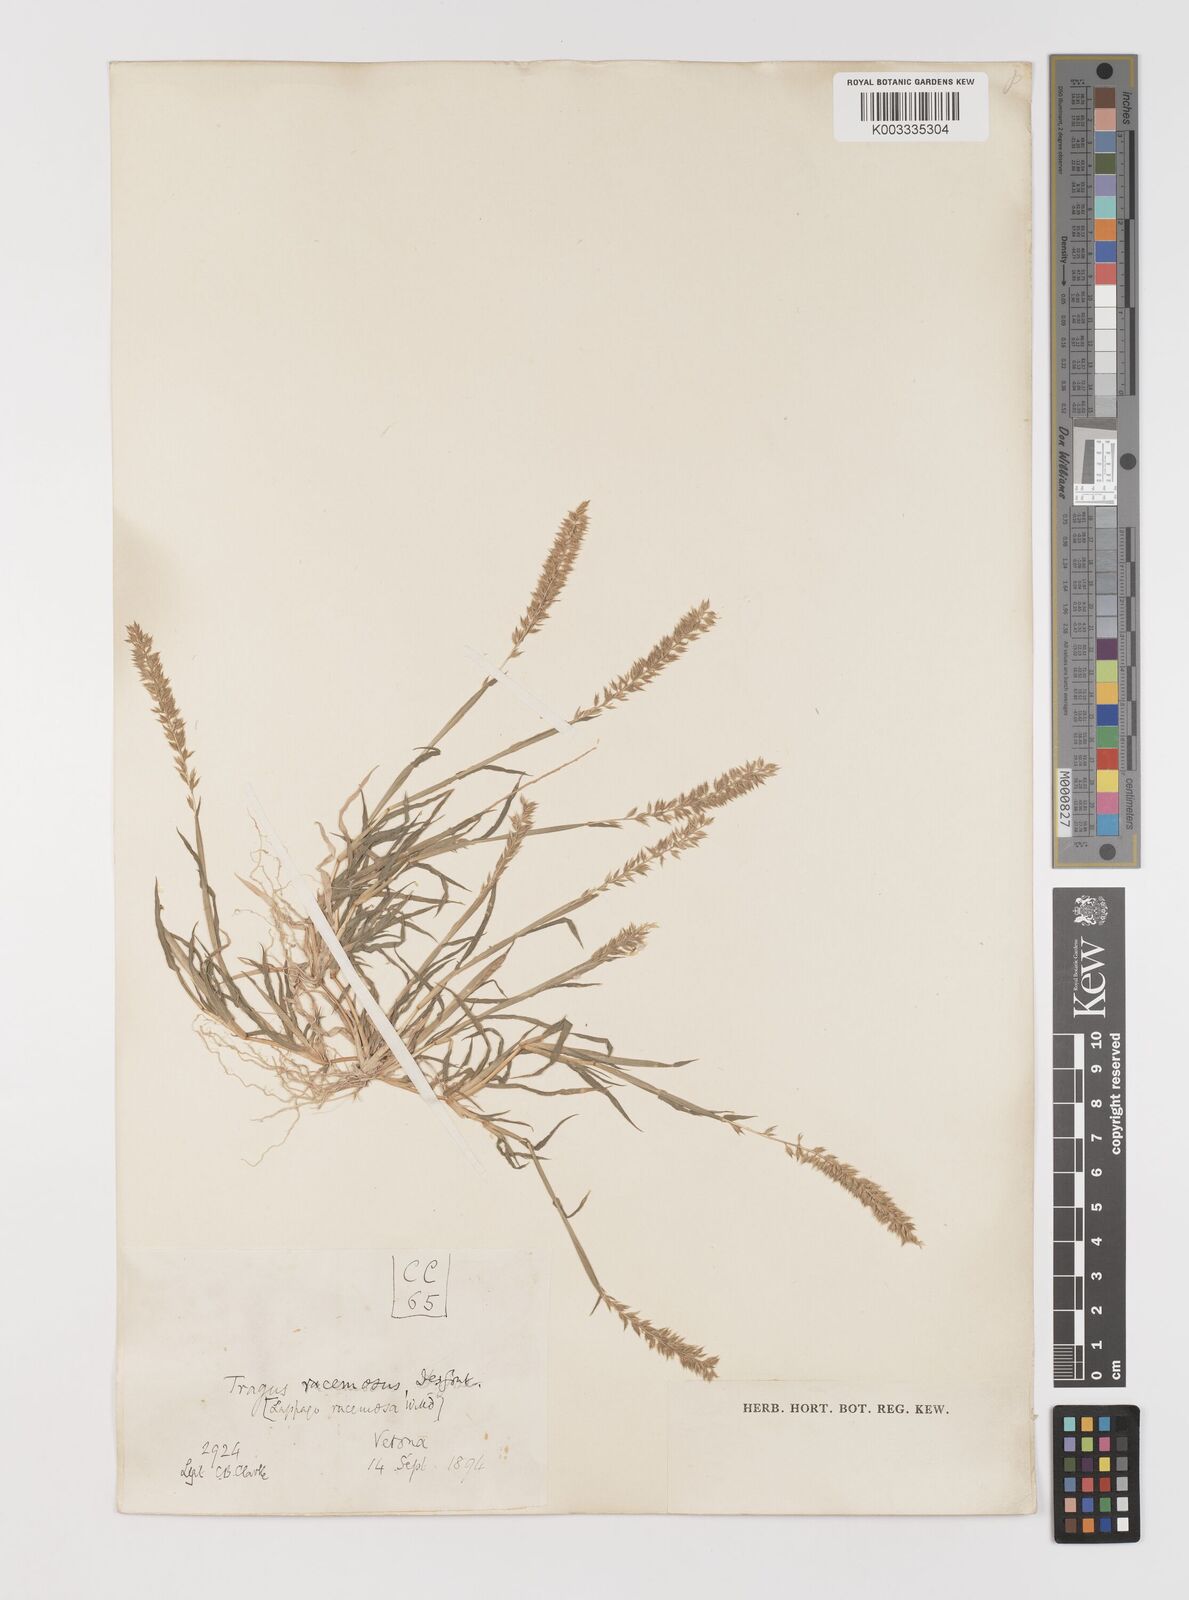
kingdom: Plantae
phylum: Tracheophyta
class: Liliopsida
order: Poales
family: Poaceae
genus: Tragus
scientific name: Tragus racemosus
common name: European bur-grass
